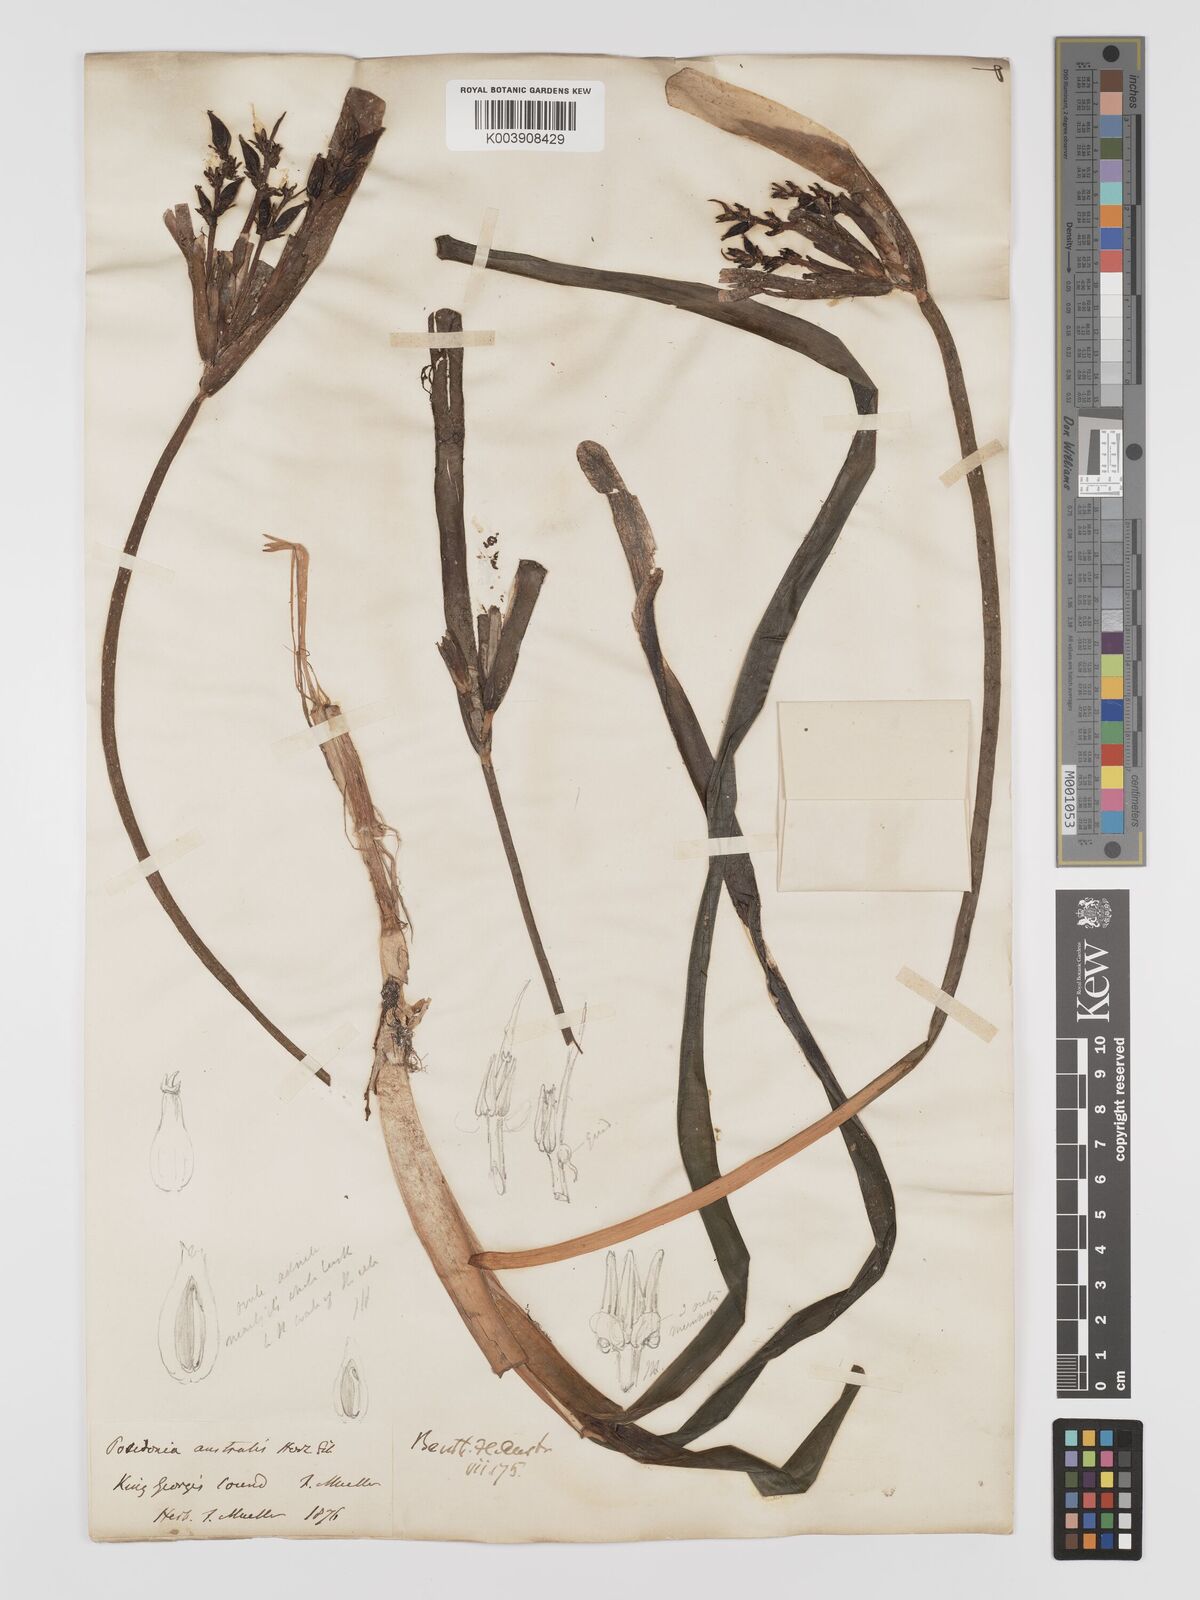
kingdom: Plantae
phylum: Tracheophyta
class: Liliopsida
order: Alismatales
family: Posidoniaceae
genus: Posidonia
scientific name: Posidonia australis
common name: Species code: pa
